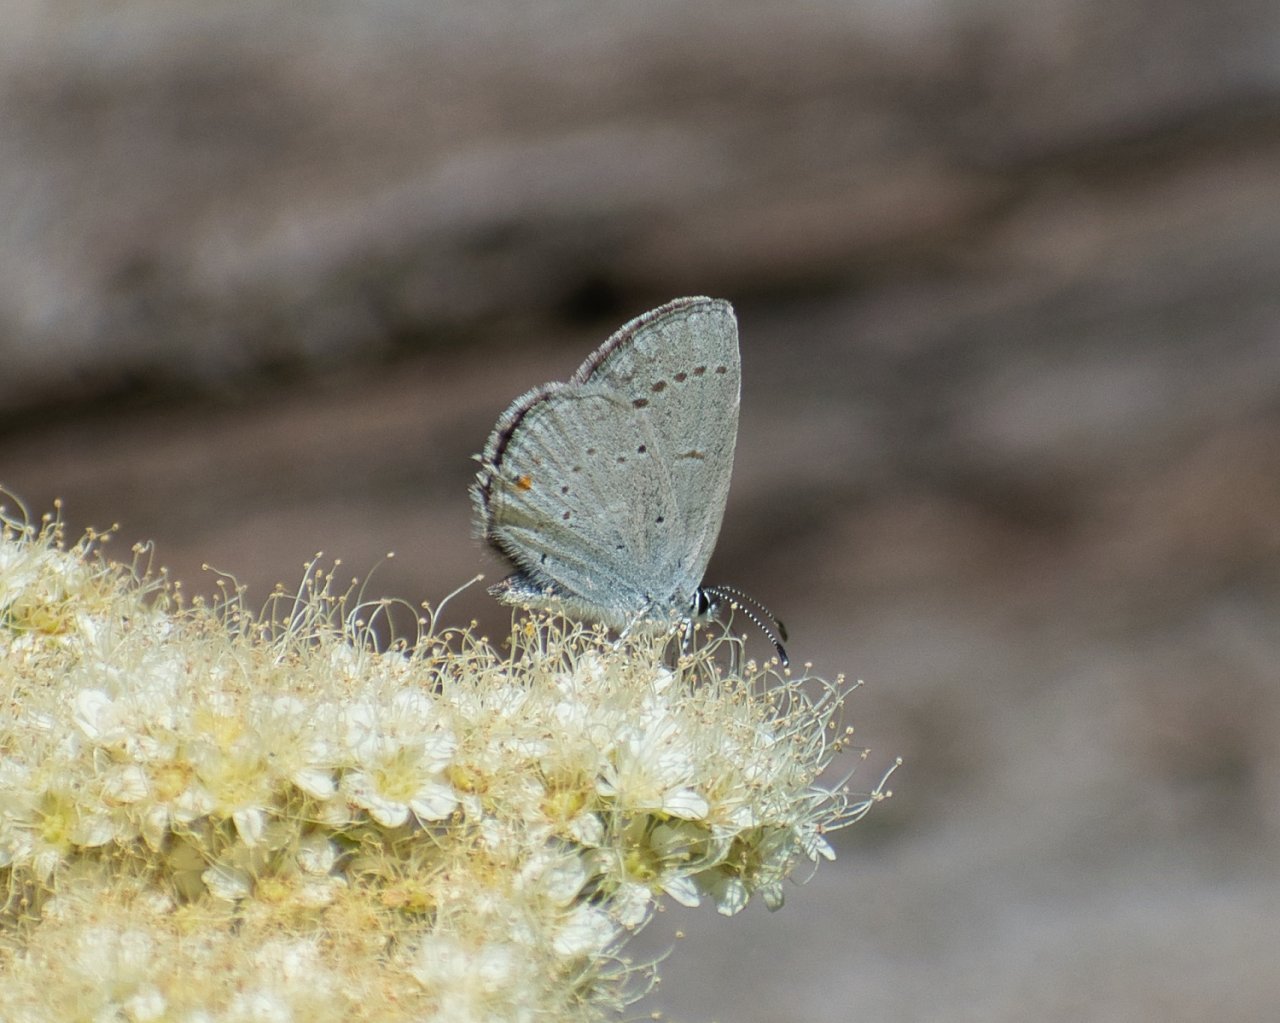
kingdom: Animalia
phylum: Arthropoda
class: Insecta
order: Lepidoptera
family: Lycaenidae
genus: Elkalyce
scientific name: Elkalyce amyntula
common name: Western Tailed-Blue
